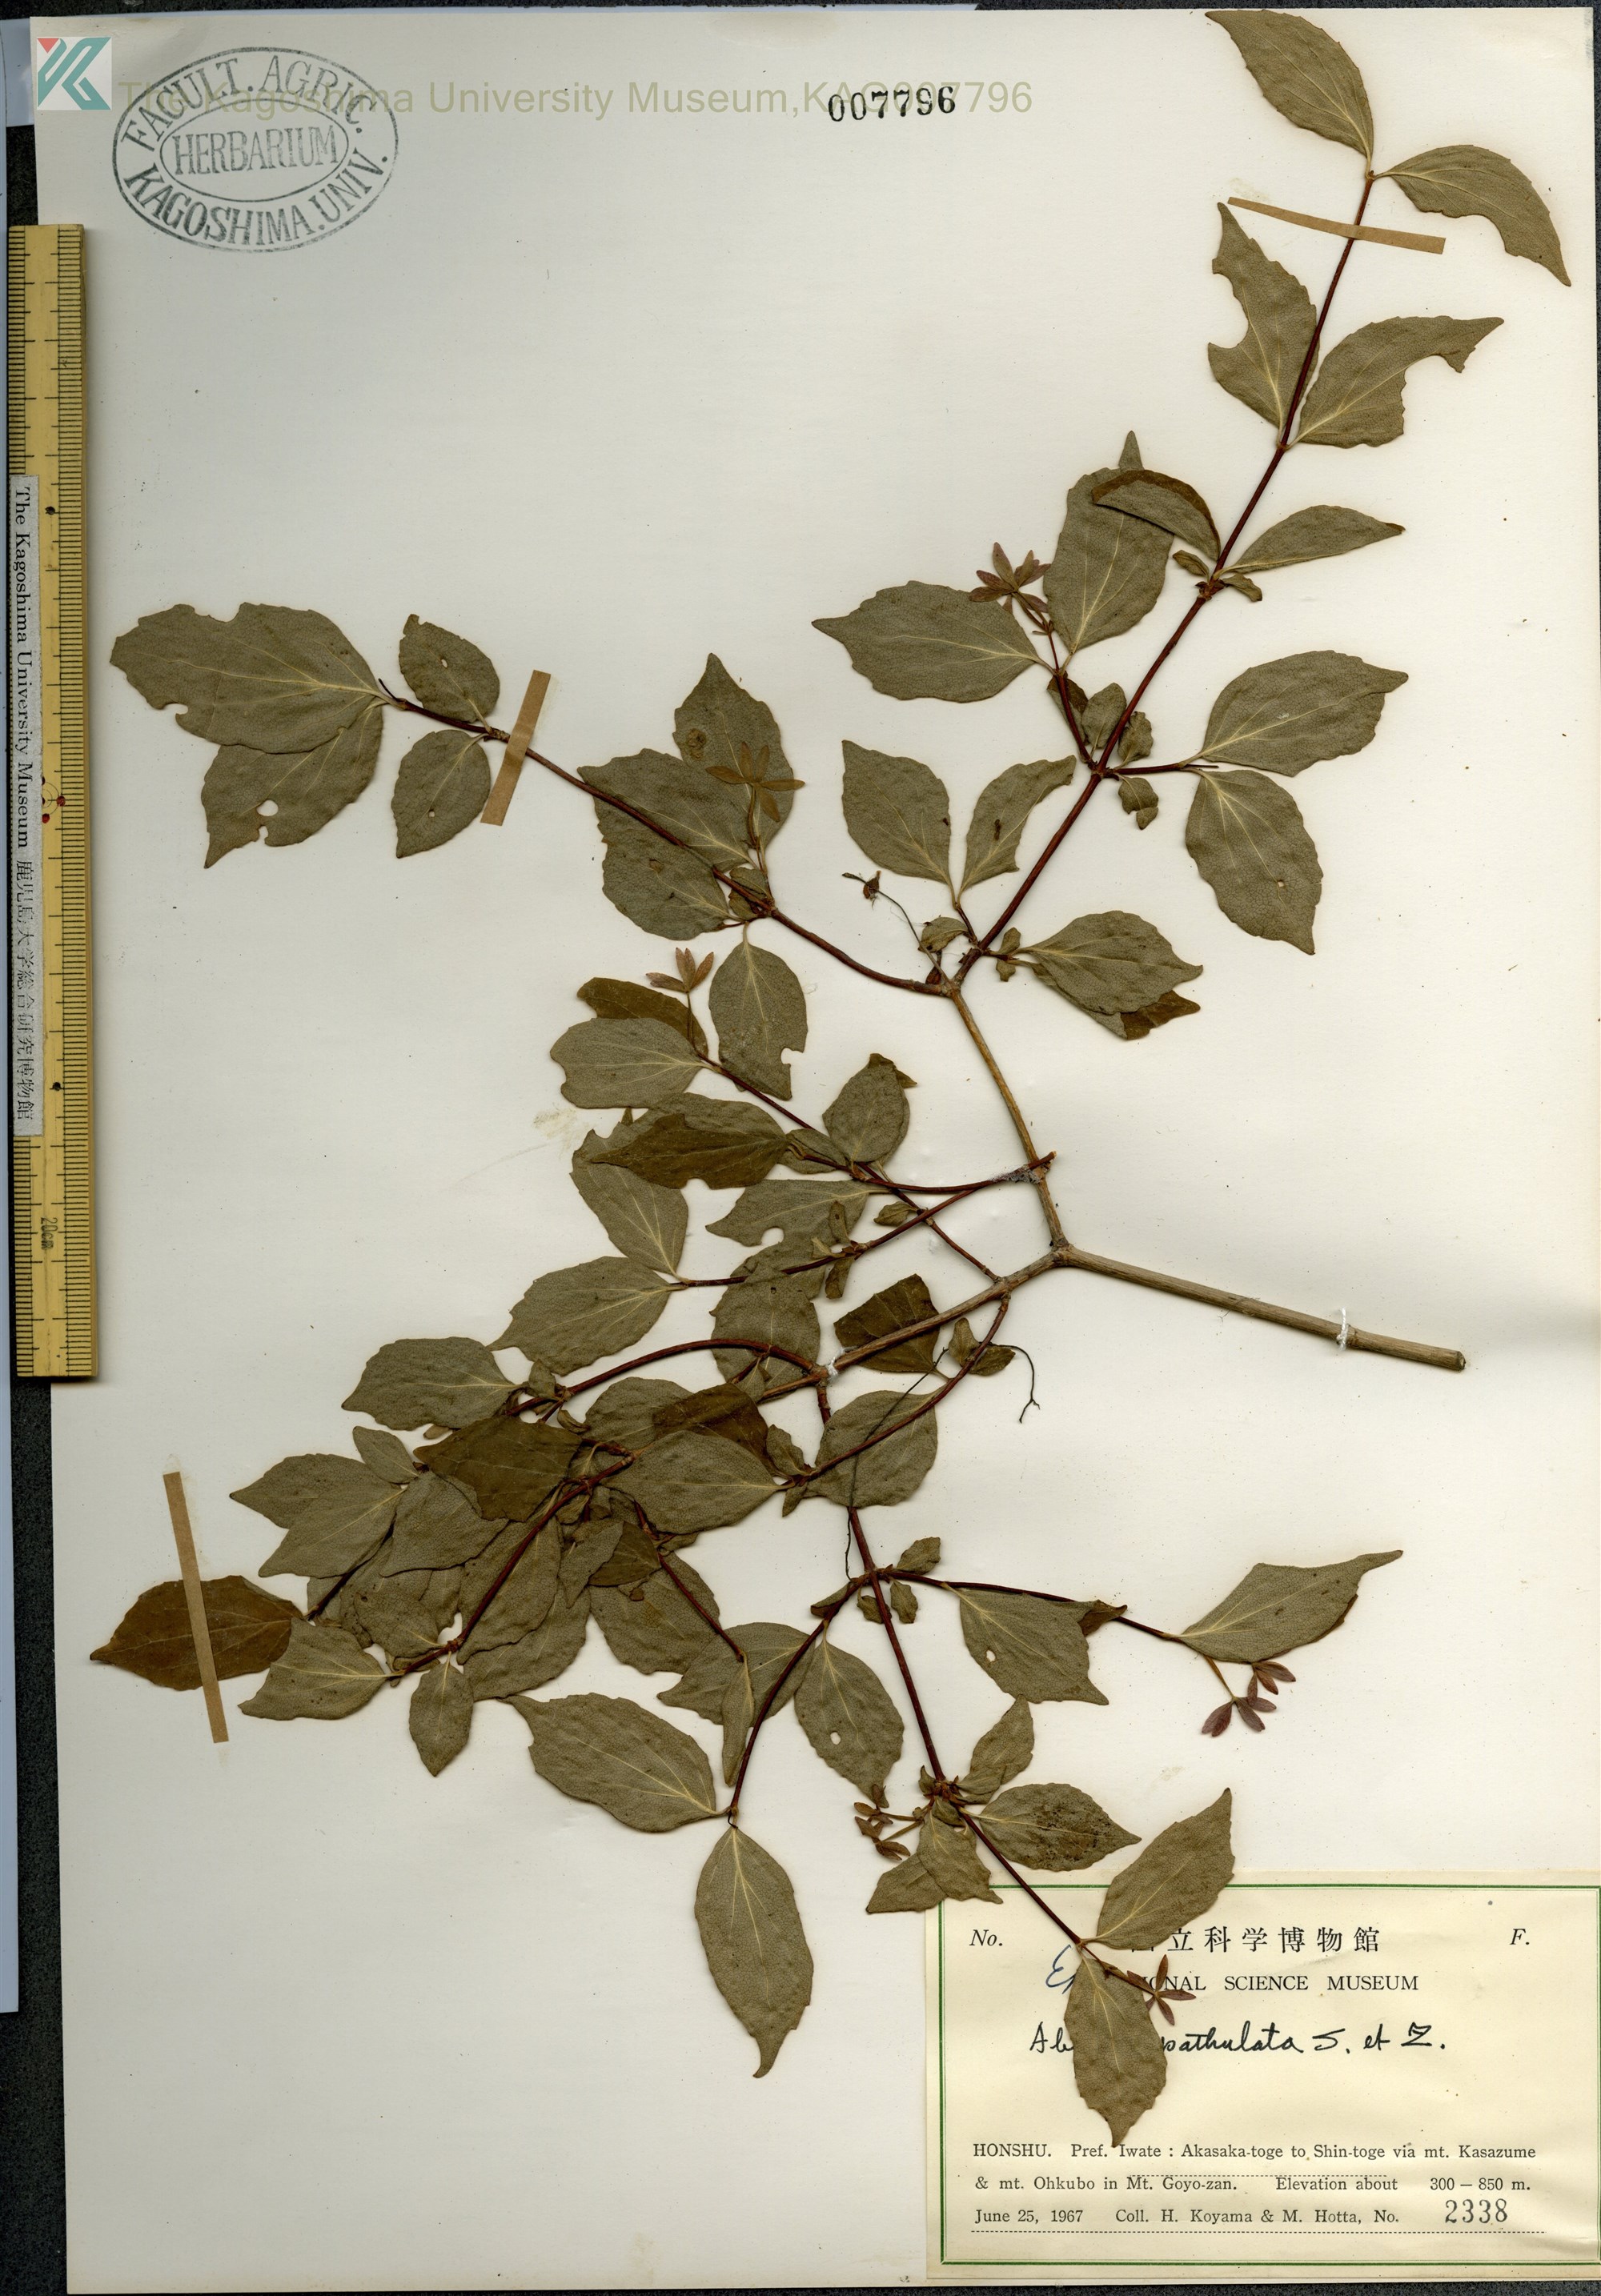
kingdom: Plantae
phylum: Tracheophyta
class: Magnoliopsida
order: Dipsacales
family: Caprifoliaceae
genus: Diabelia
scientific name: Diabelia spathulata
